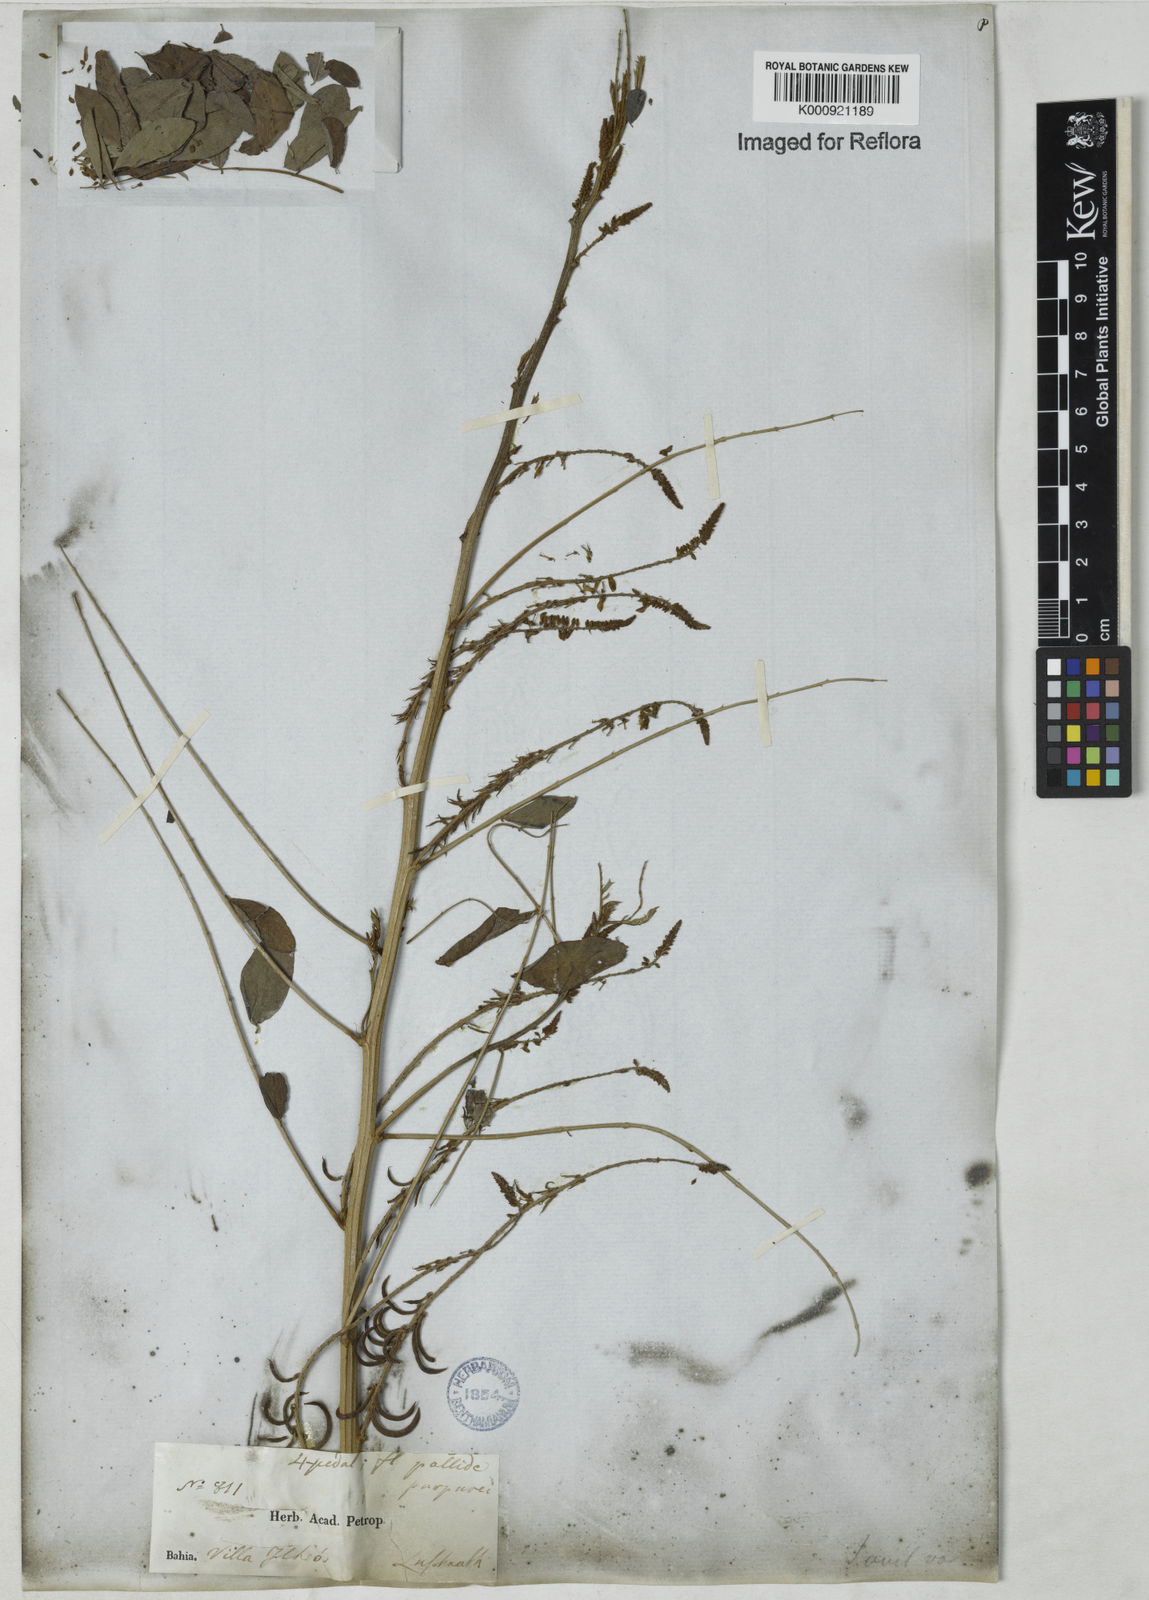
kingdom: Plantae
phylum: Tracheophyta
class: Magnoliopsida
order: Fabales
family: Fabaceae
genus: Indigofera
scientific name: Indigofera suffruticosa
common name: Anil de pasto
